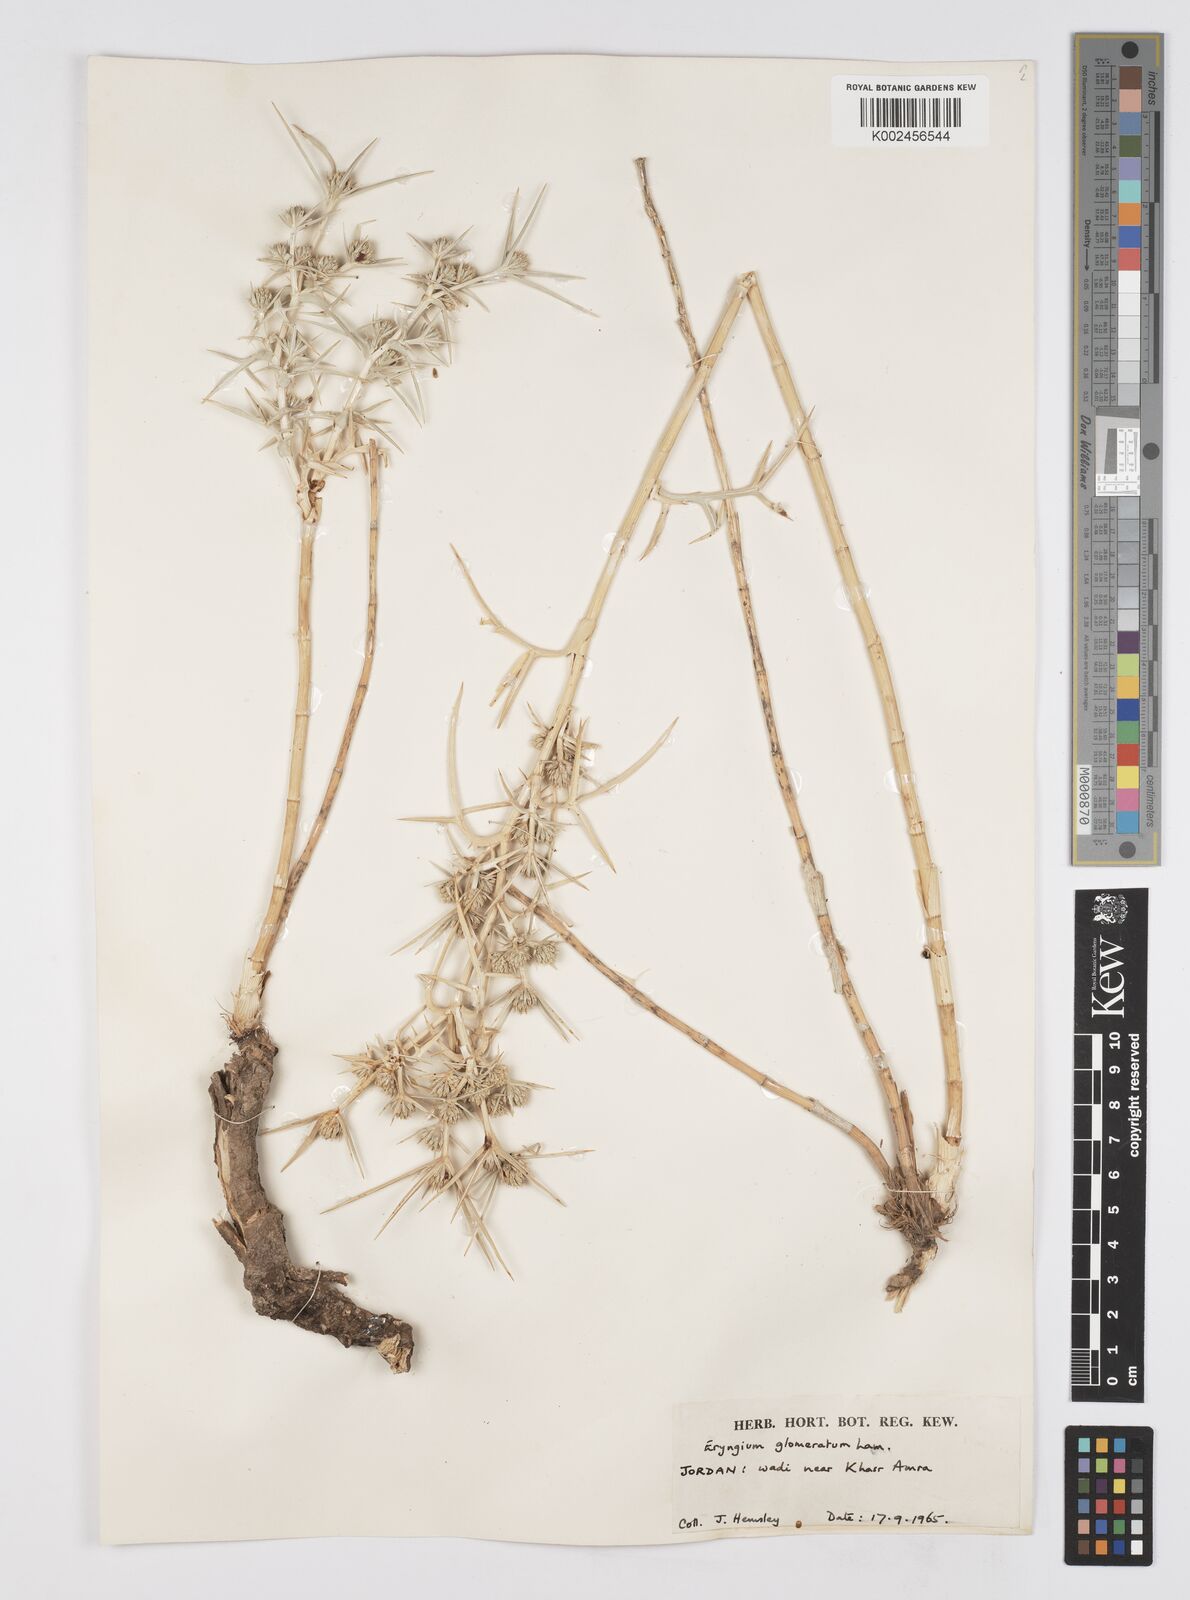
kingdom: Plantae
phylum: Tracheophyta
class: Magnoliopsida
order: Apiales
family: Apiaceae
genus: Eryngium
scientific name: Eryngium glomeratum
